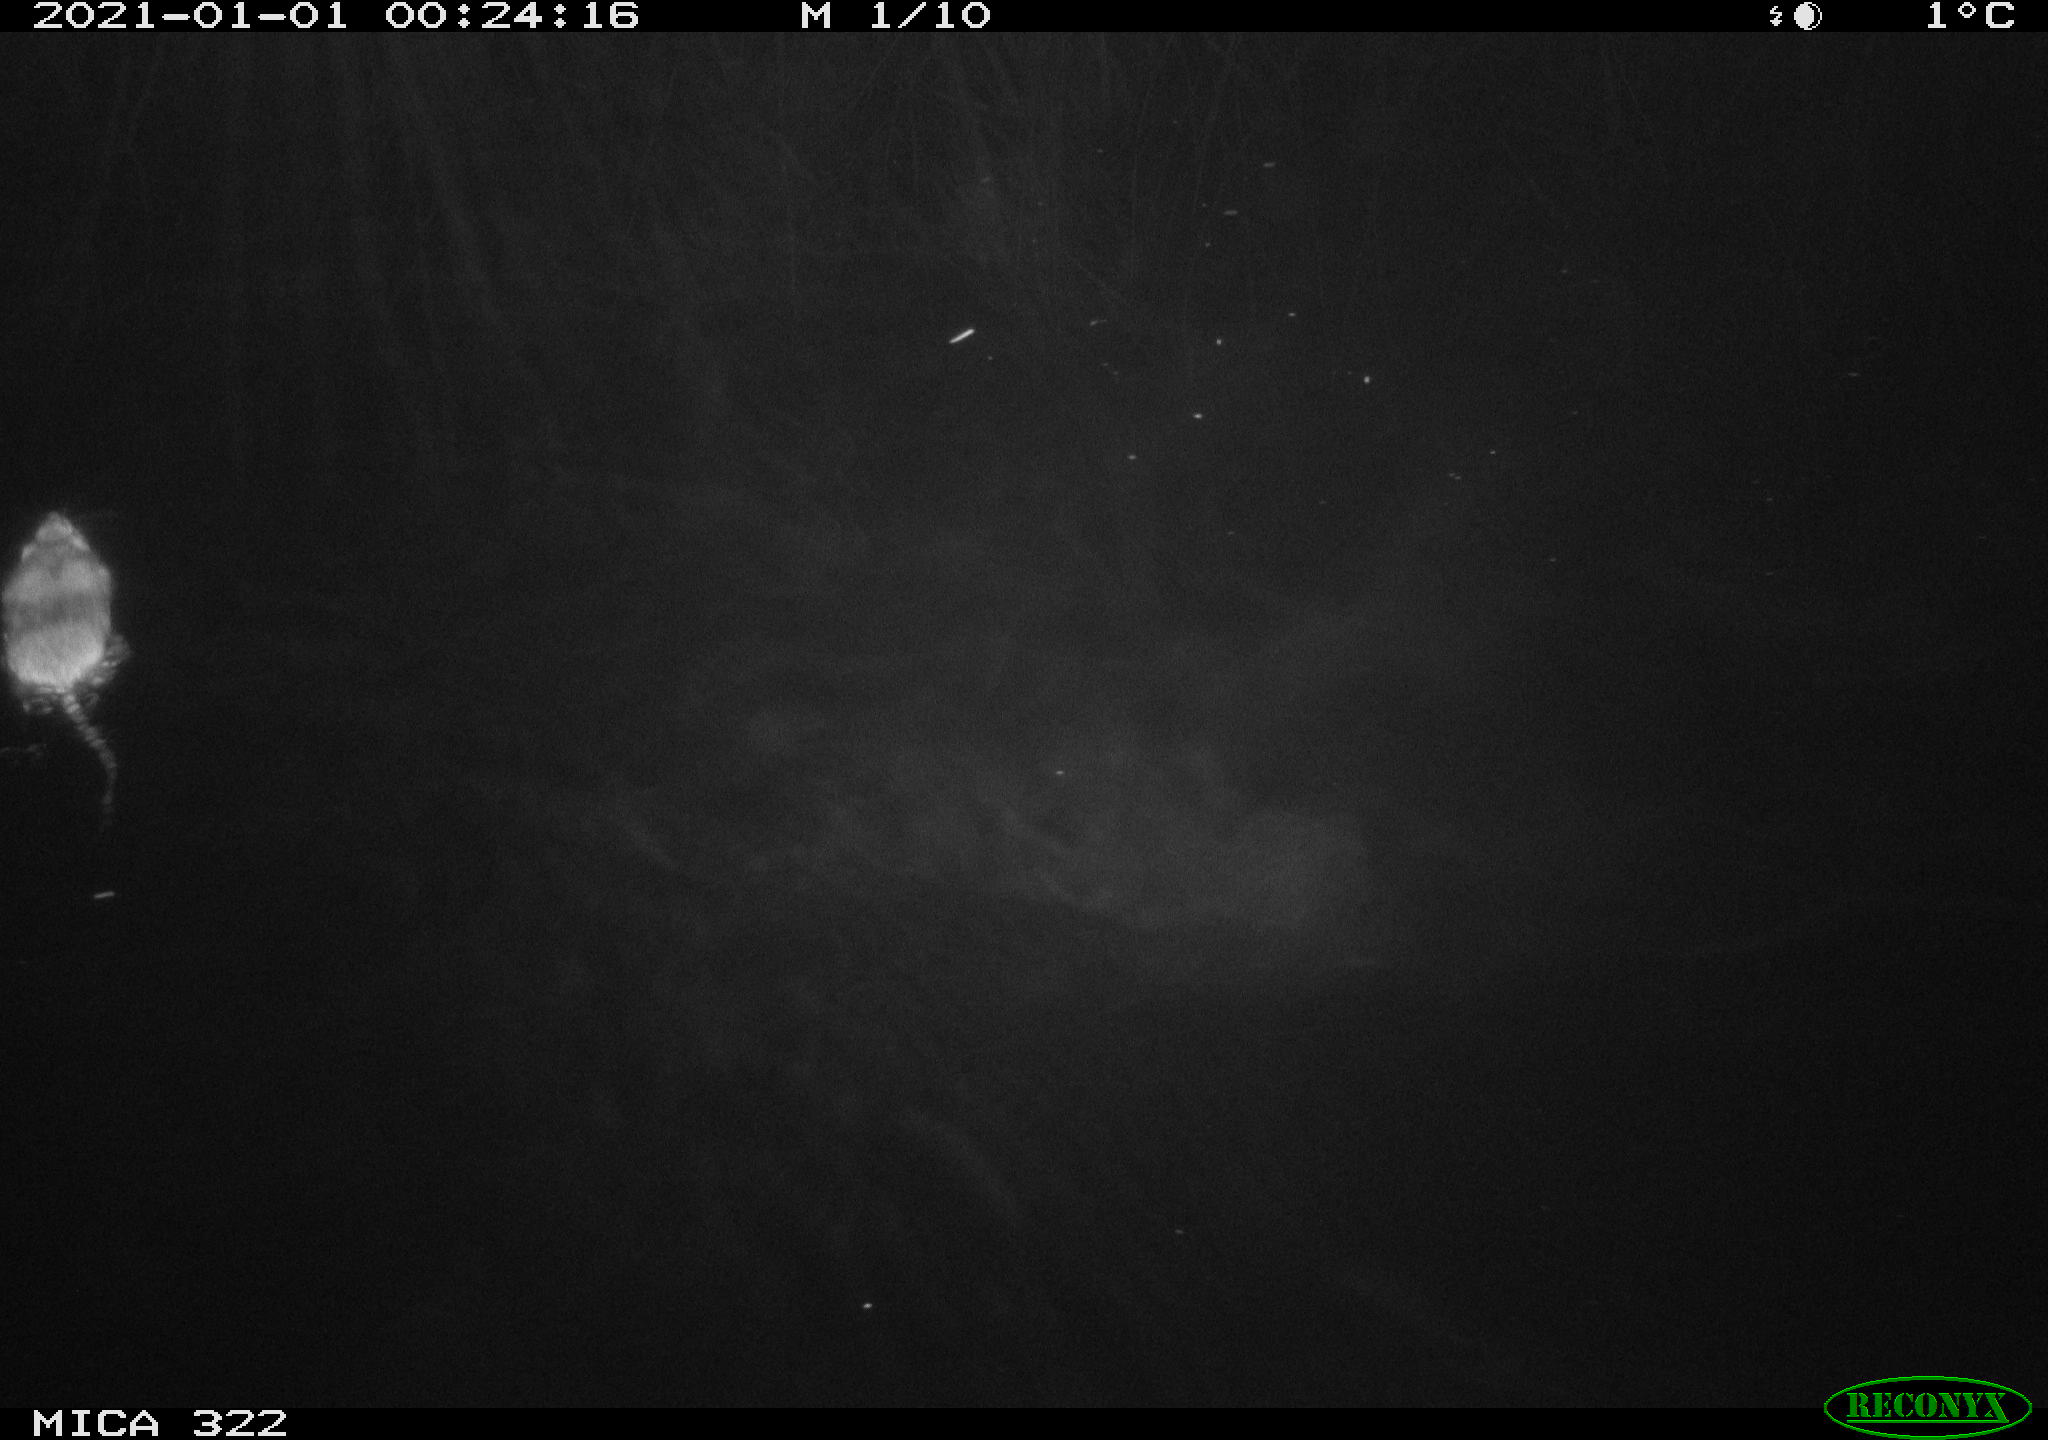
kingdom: Animalia
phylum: Chordata
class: Mammalia
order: Rodentia
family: Muridae
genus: Rattus
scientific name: Rattus norvegicus
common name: Brown rat
